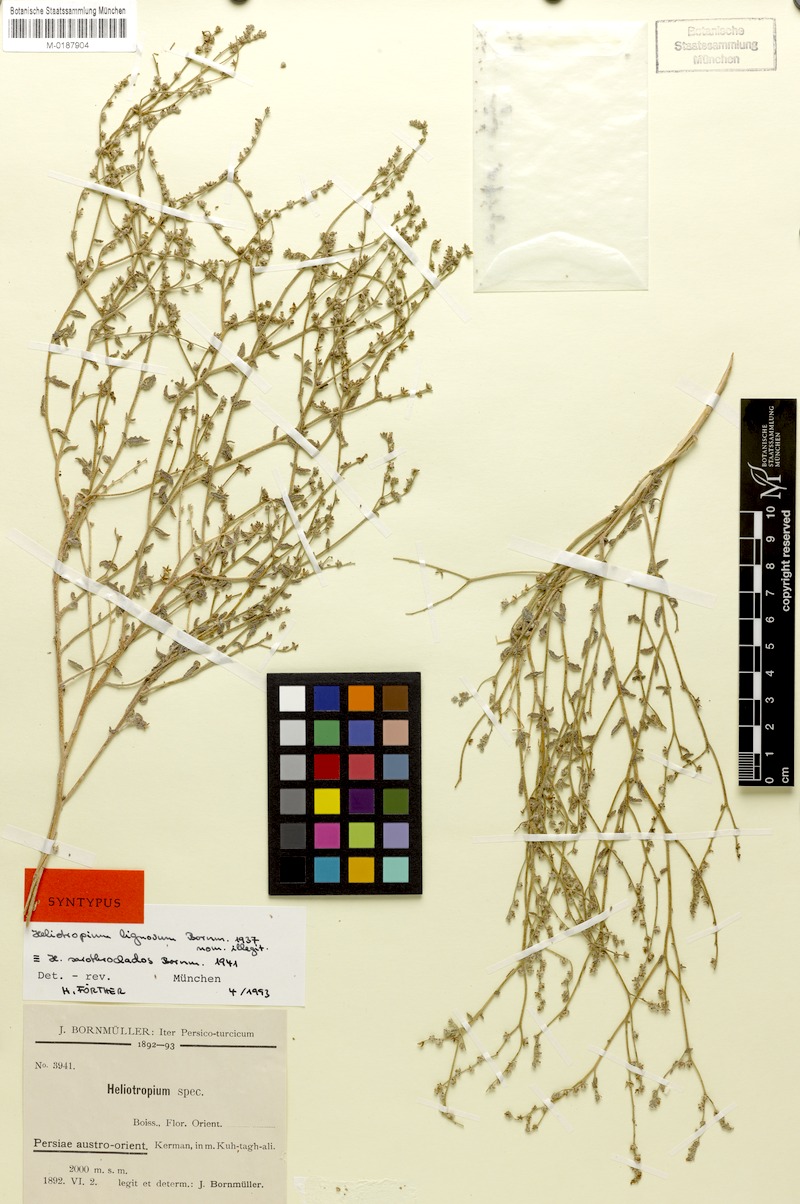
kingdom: Plantae
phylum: Tracheophyta
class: Magnoliopsida
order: Boraginales
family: Heliotropiaceae
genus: Heliotropium
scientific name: Heliotropium bacciferum
